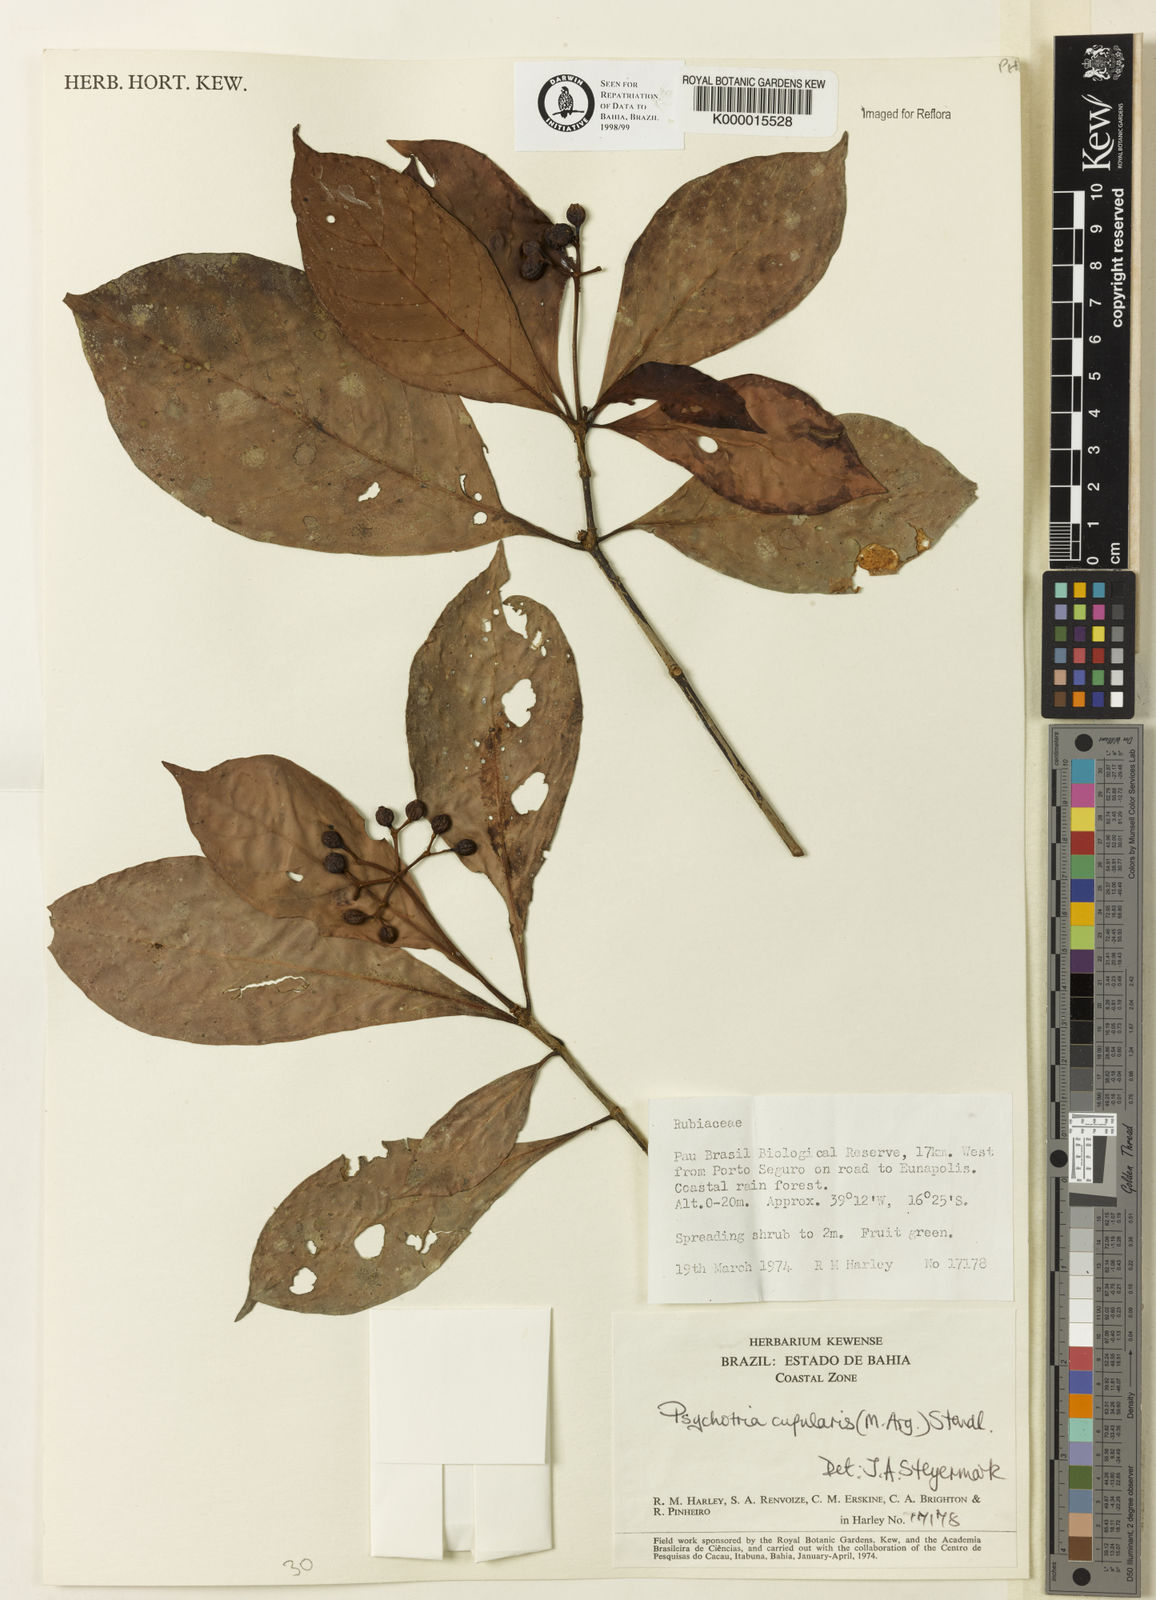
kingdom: Plantae
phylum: Tracheophyta
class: Magnoliopsida
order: Gentianales
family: Rubiaceae
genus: Psychotria
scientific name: Psychotria carthagenensis
